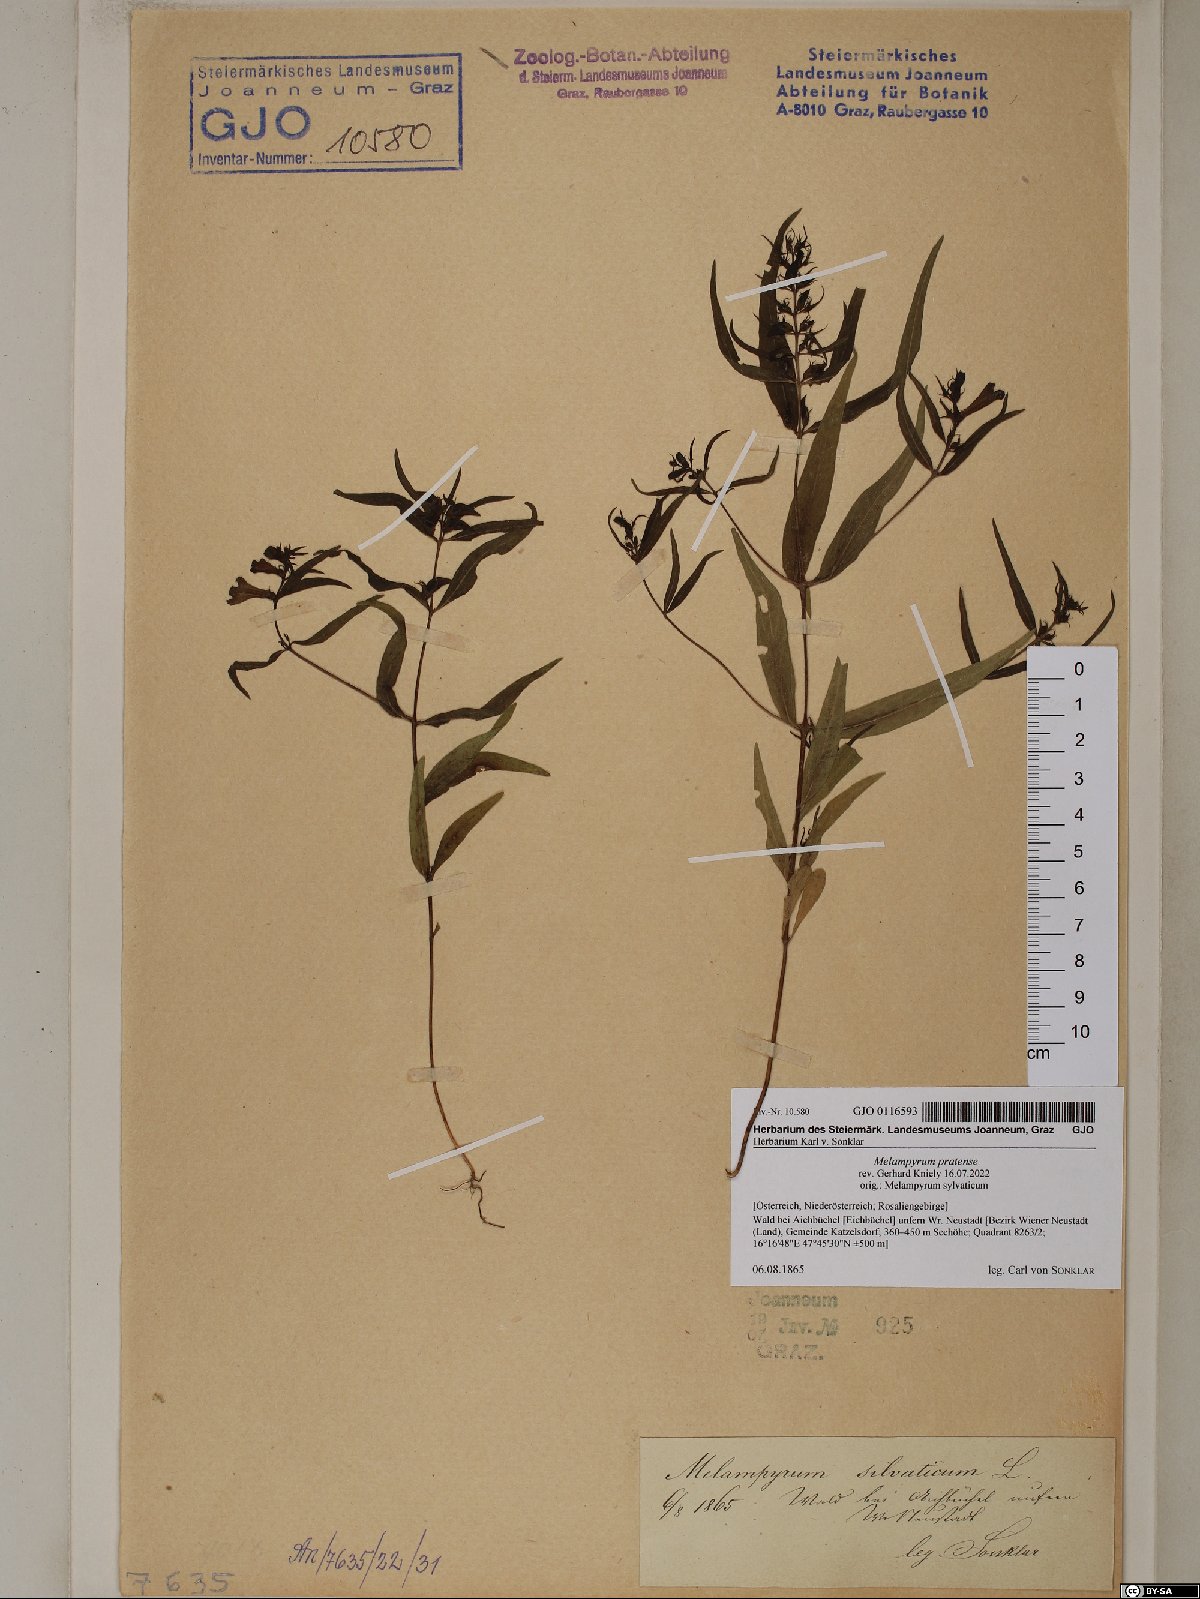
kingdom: Plantae
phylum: Tracheophyta
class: Magnoliopsida
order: Lamiales
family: Orobanchaceae
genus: Melampyrum
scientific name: Melampyrum pratense
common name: Common cow-wheat
